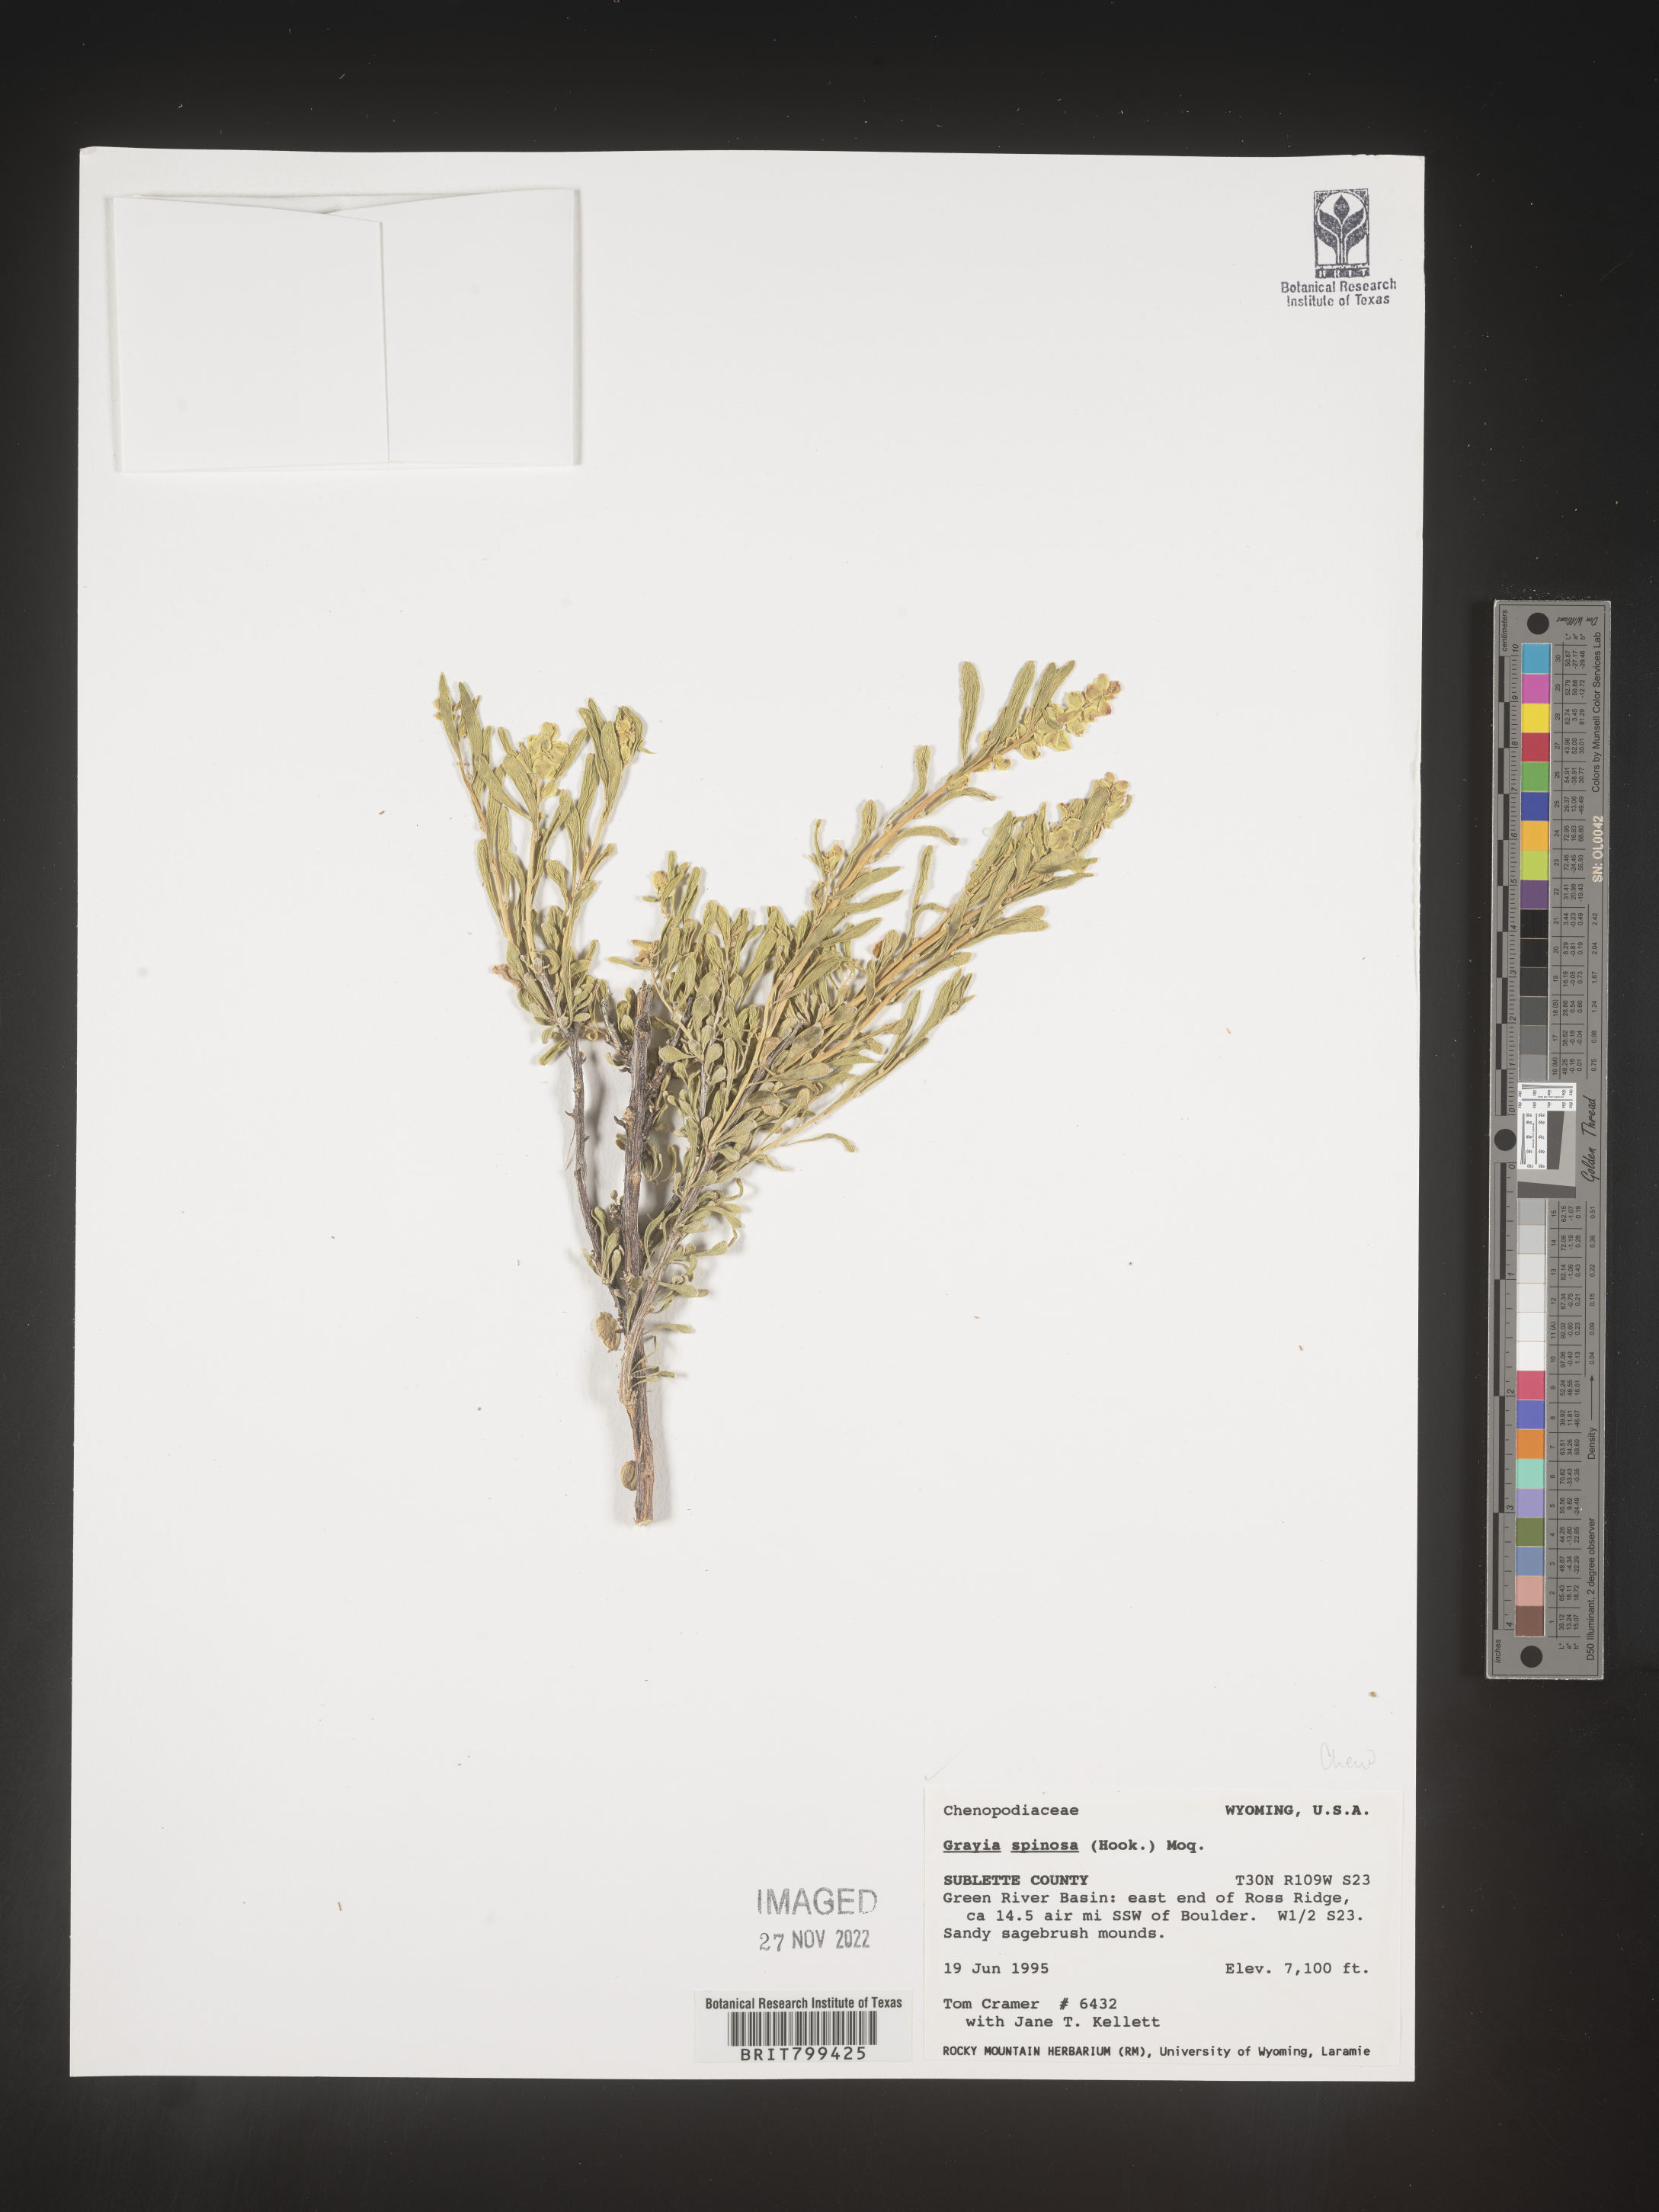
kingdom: Plantae
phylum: Tracheophyta
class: Magnoliopsida
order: Caryophyllales
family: Amaranthaceae
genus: Grayia
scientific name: Grayia spinosa
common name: Spiny hopsage
